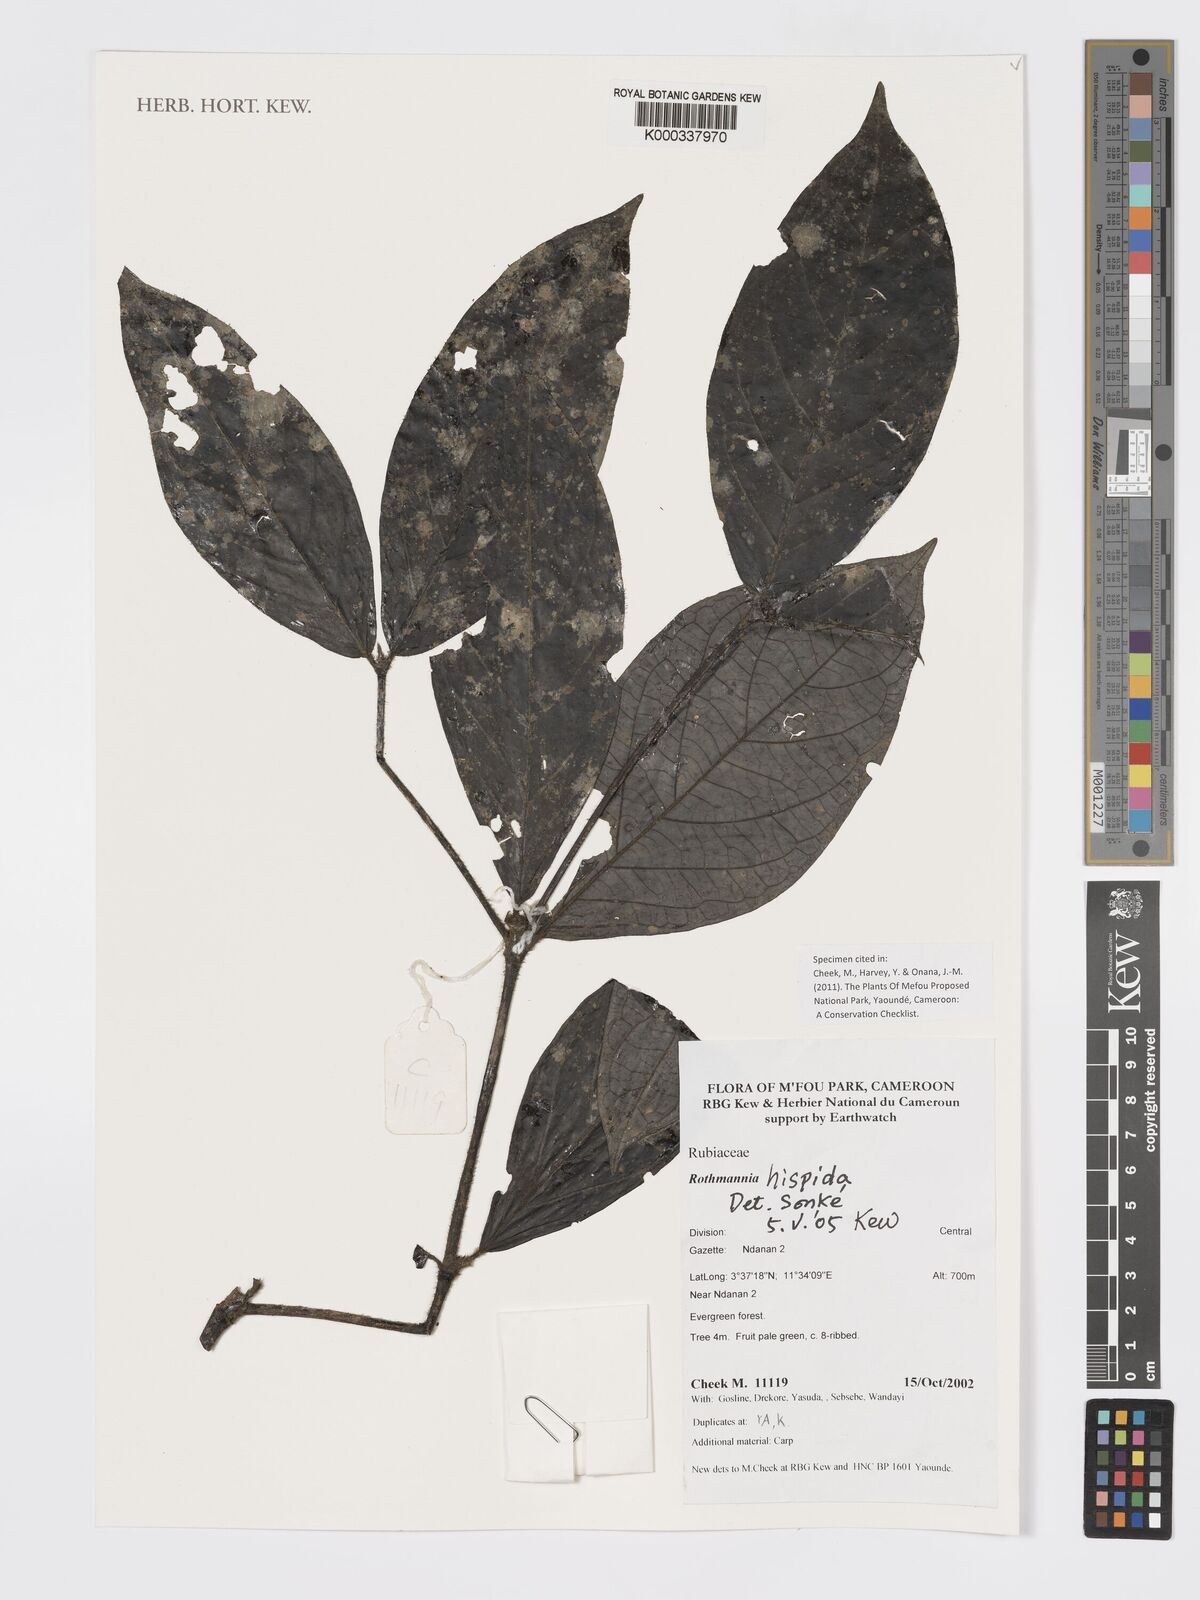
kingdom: Plantae
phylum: Tracheophyta
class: Magnoliopsida
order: Gentianales
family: Rubiaceae
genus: Rothmannia
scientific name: Rothmannia hispida
